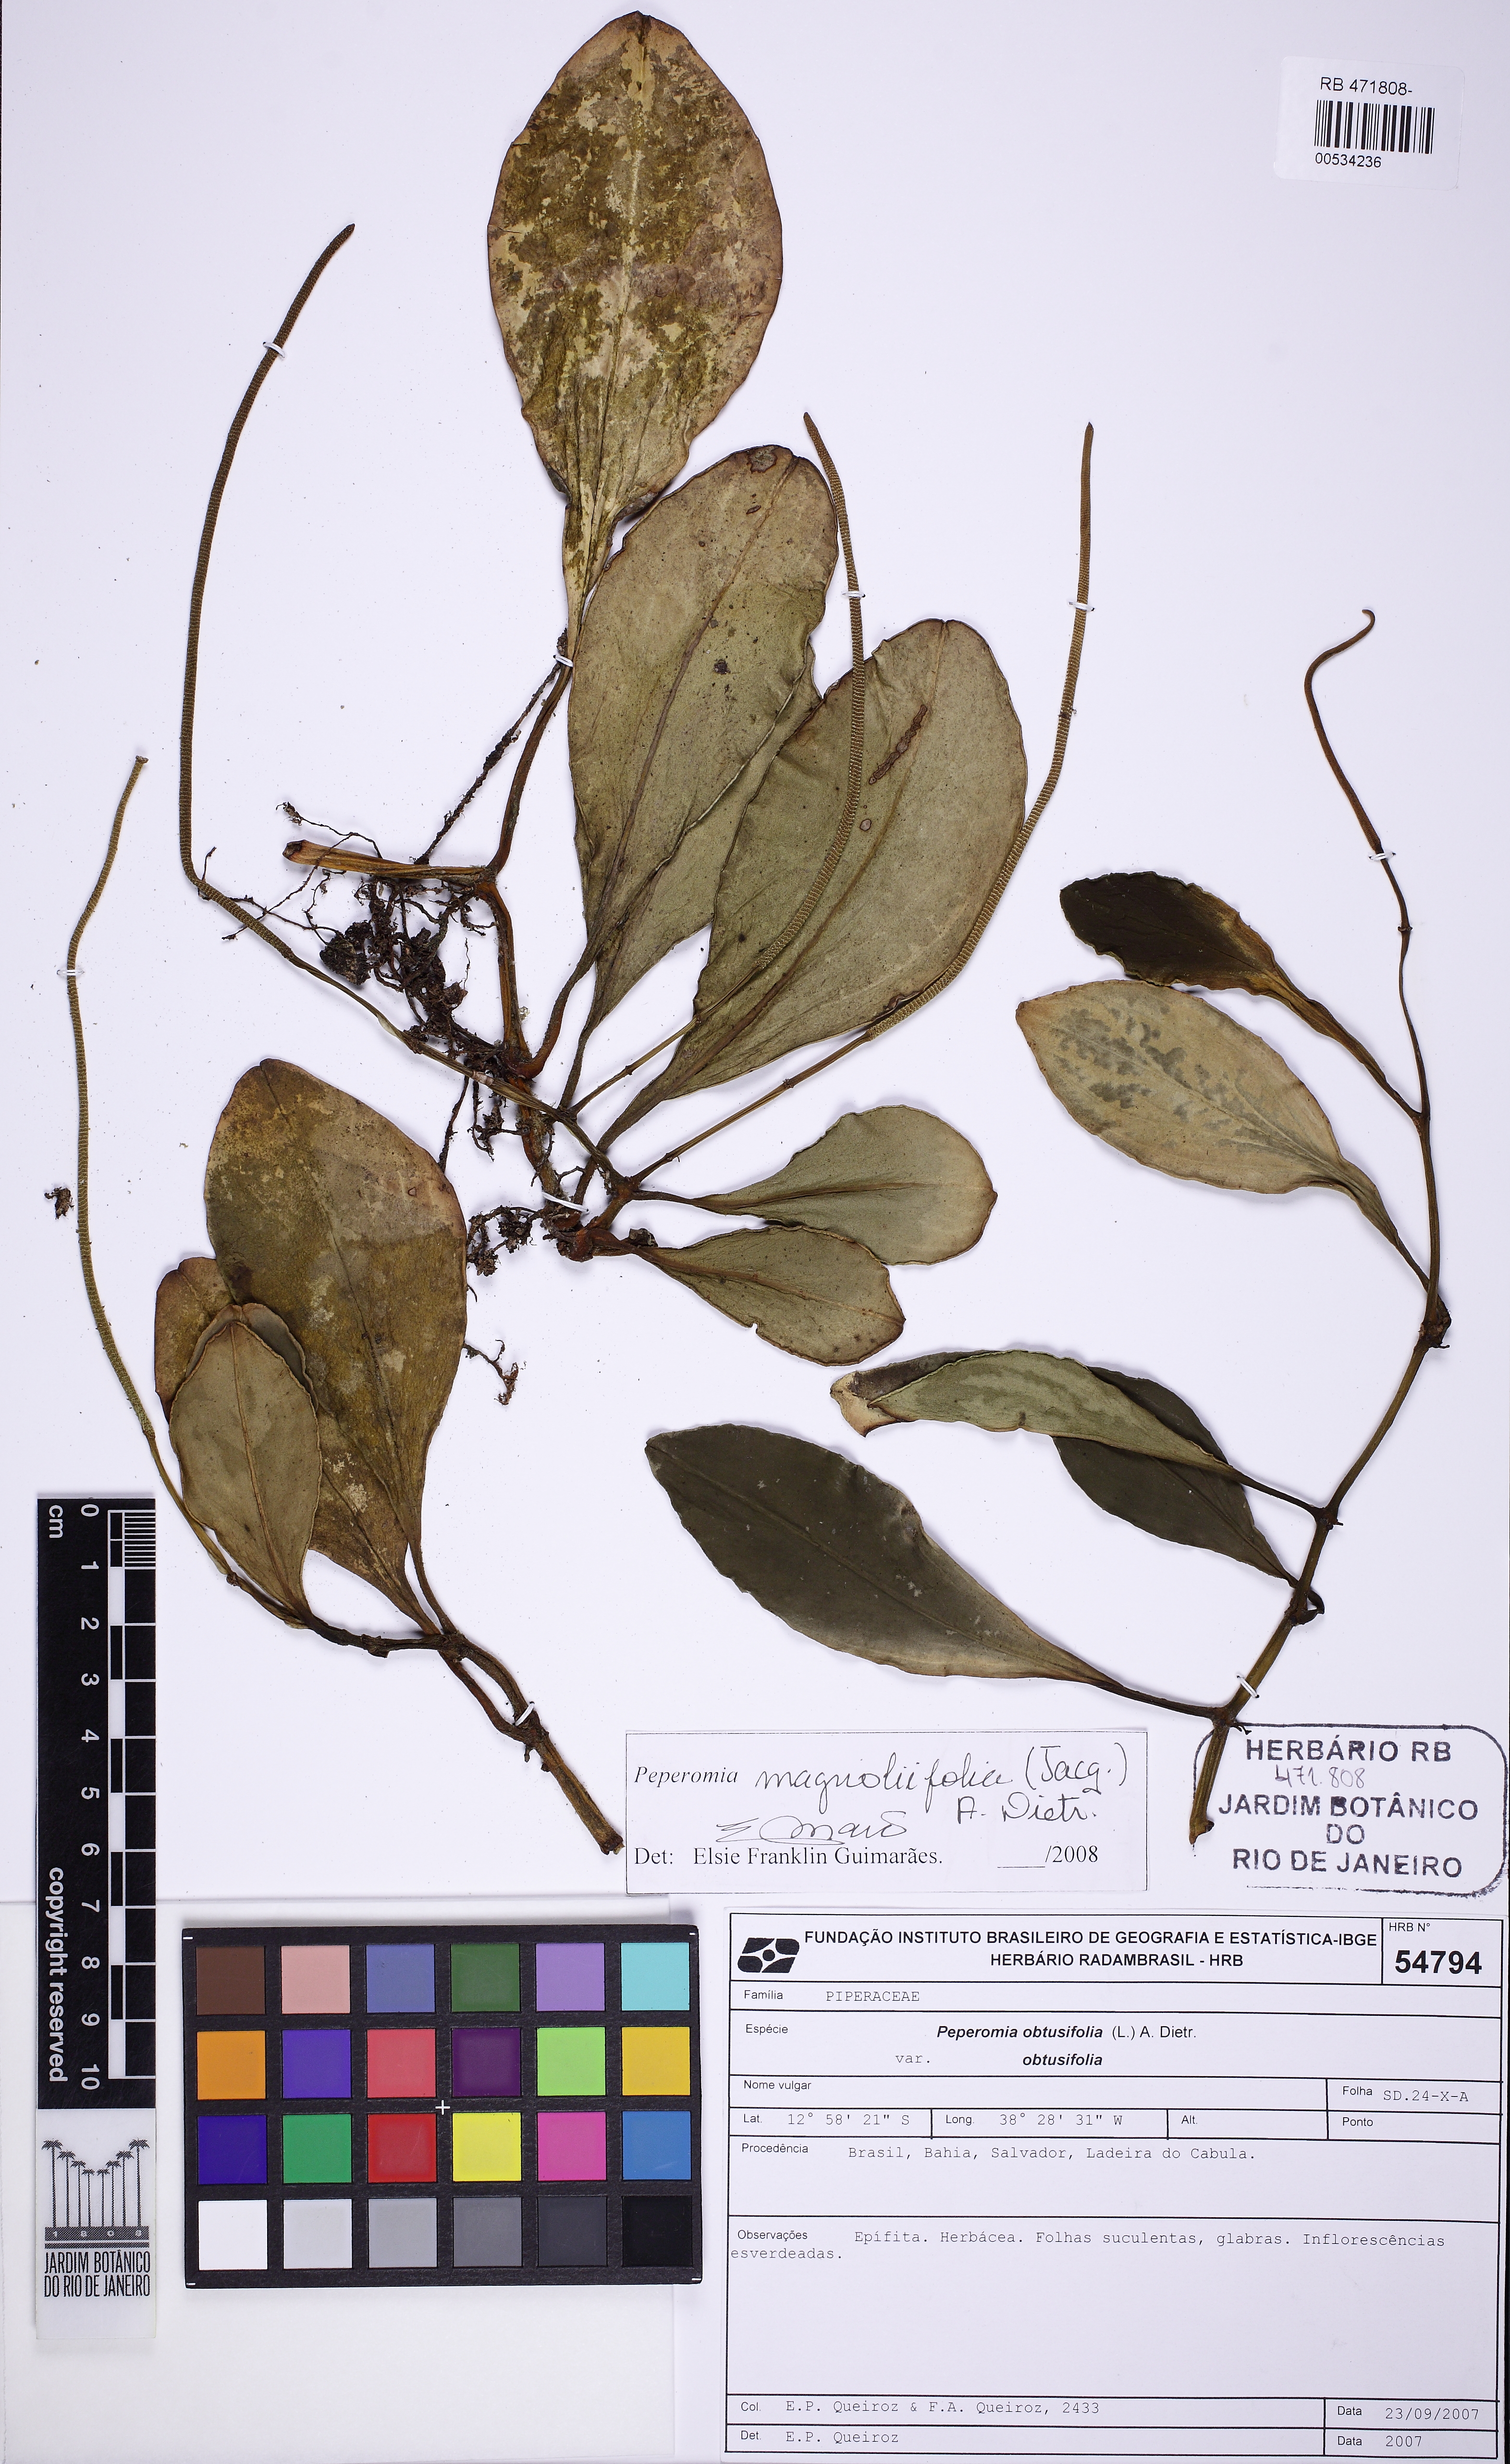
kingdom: Plantae
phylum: Tracheophyta
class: Magnoliopsida
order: Piperales
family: Piperaceae
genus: Peperomia
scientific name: Peperomia magnoliifolia
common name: Spoonleaf peperomia
